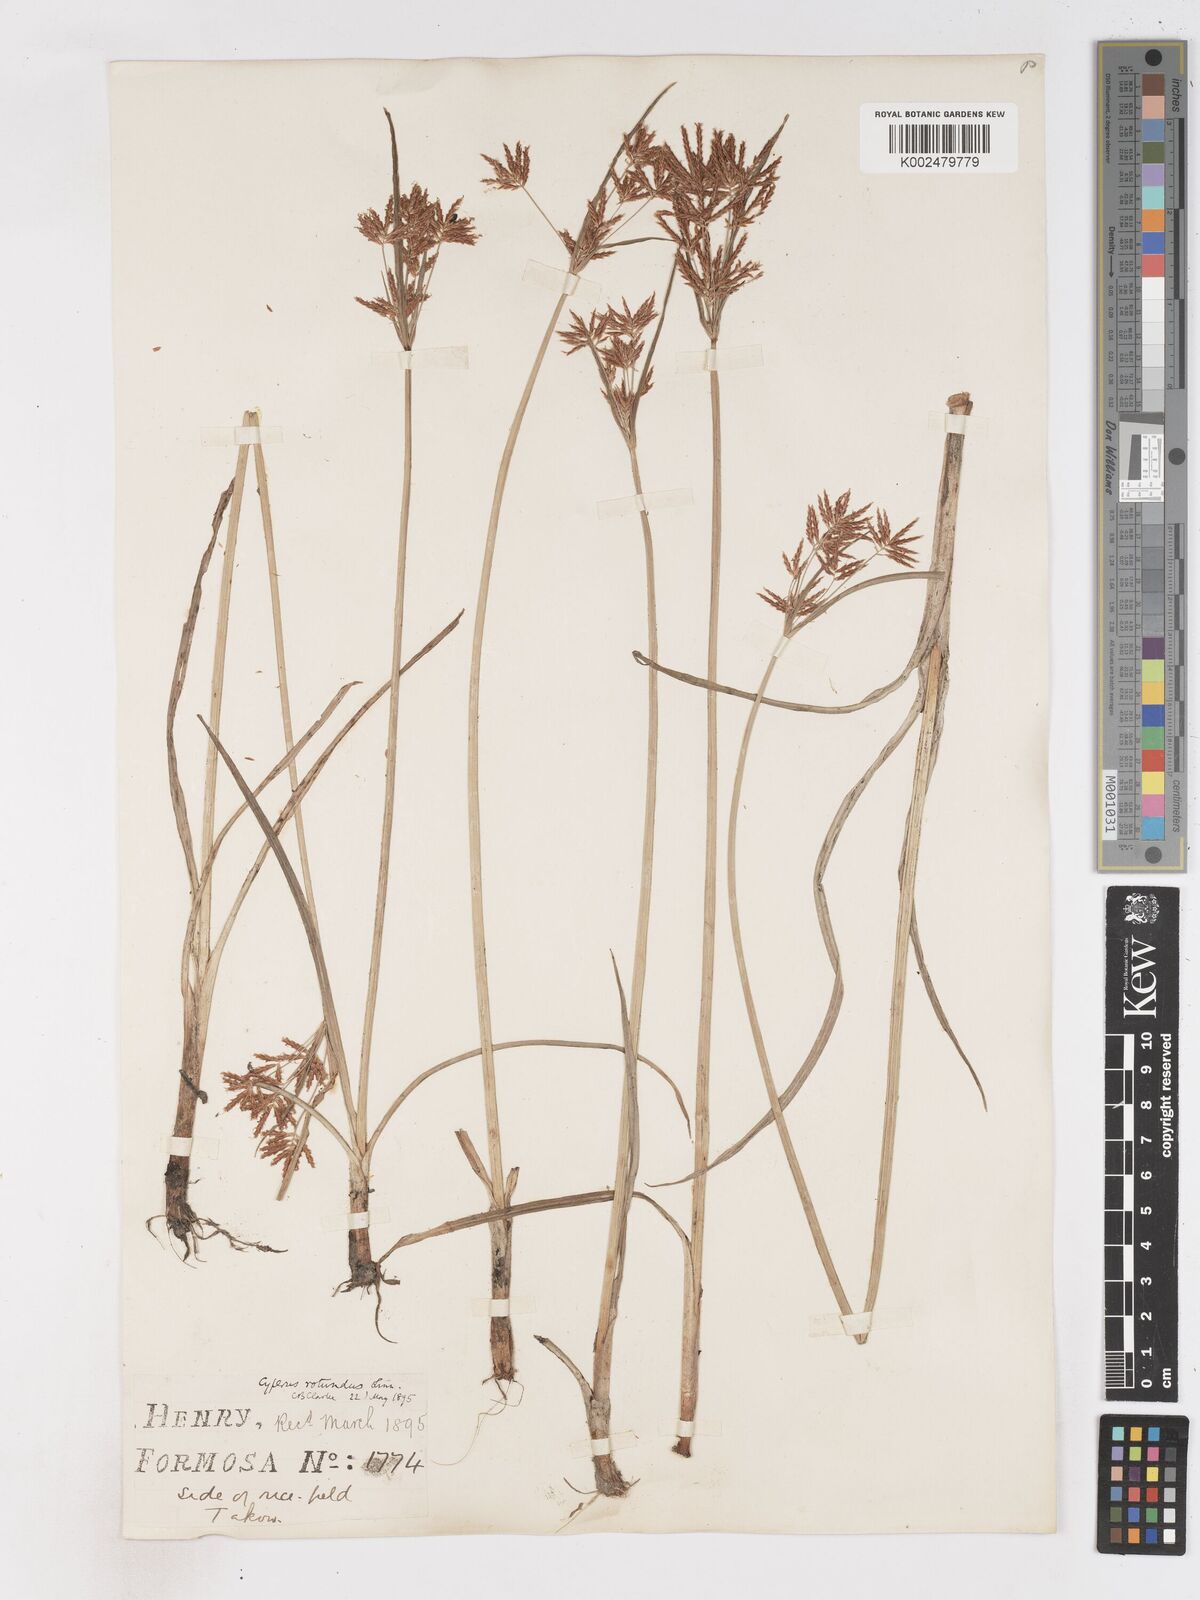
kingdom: Plantae
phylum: Tracheophyta
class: Liliopsida
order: Poales
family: Cyperaceae
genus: Cyperus
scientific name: Cyperus rotundus
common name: Nutgrass
